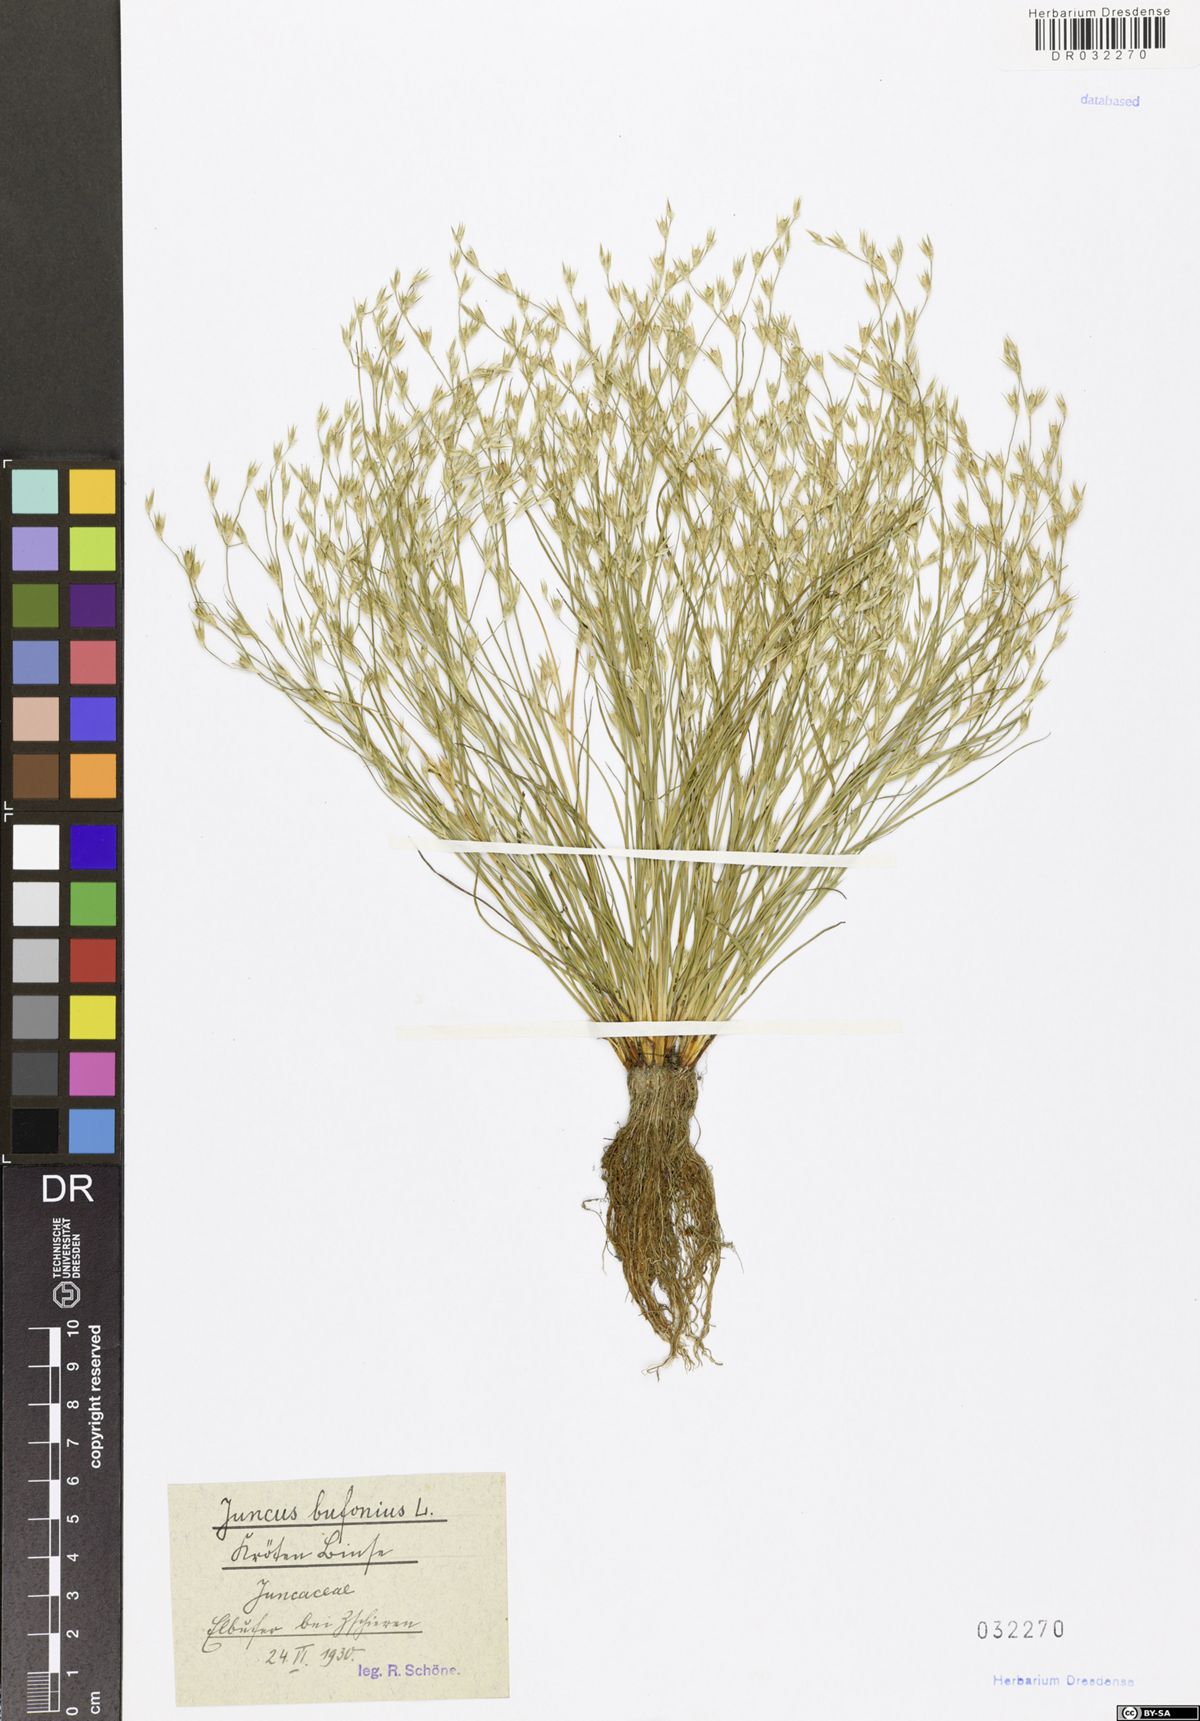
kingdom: Plantae
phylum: Tracheophyta
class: Liliopsida
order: Poales
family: Juncaceae
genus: Juncus
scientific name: Juncus bufonius
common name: Toad rush
